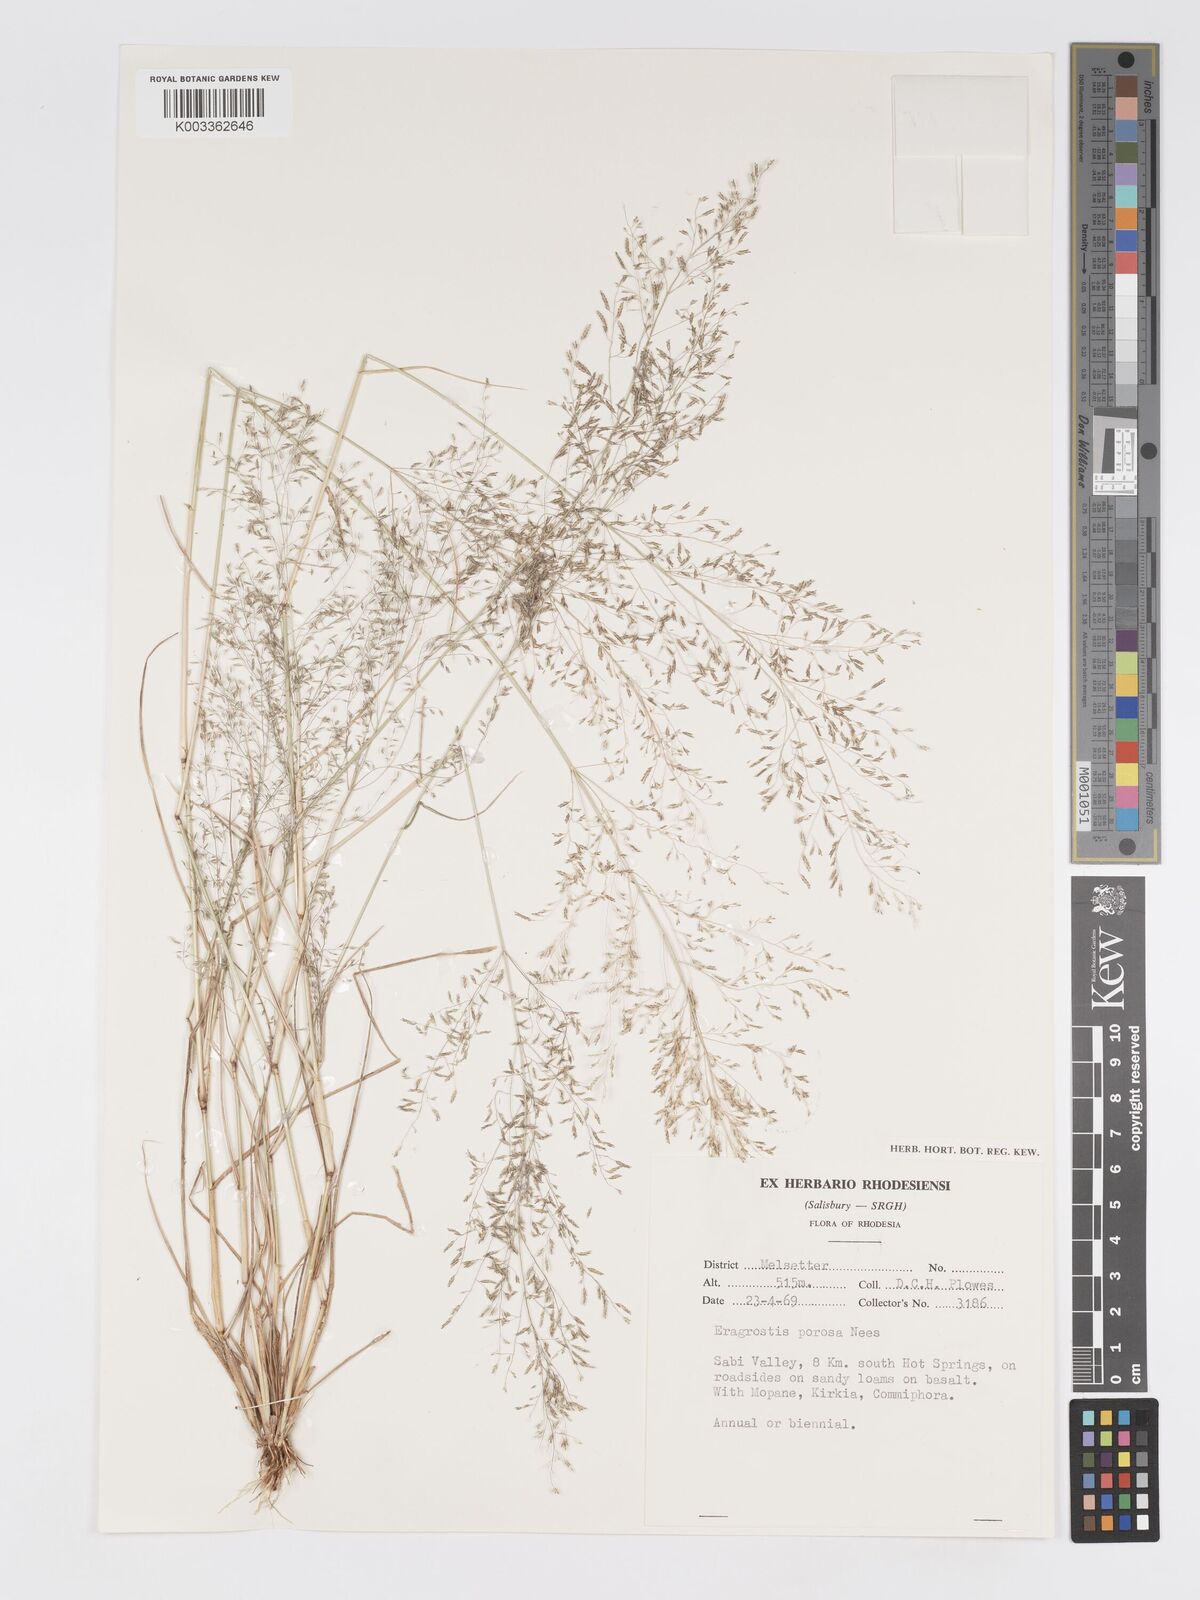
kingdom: Plantae
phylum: Tracheophyta
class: Liliopsida
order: Poales
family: Poaceae
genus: Eragrostis
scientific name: Eragrostis porosa
